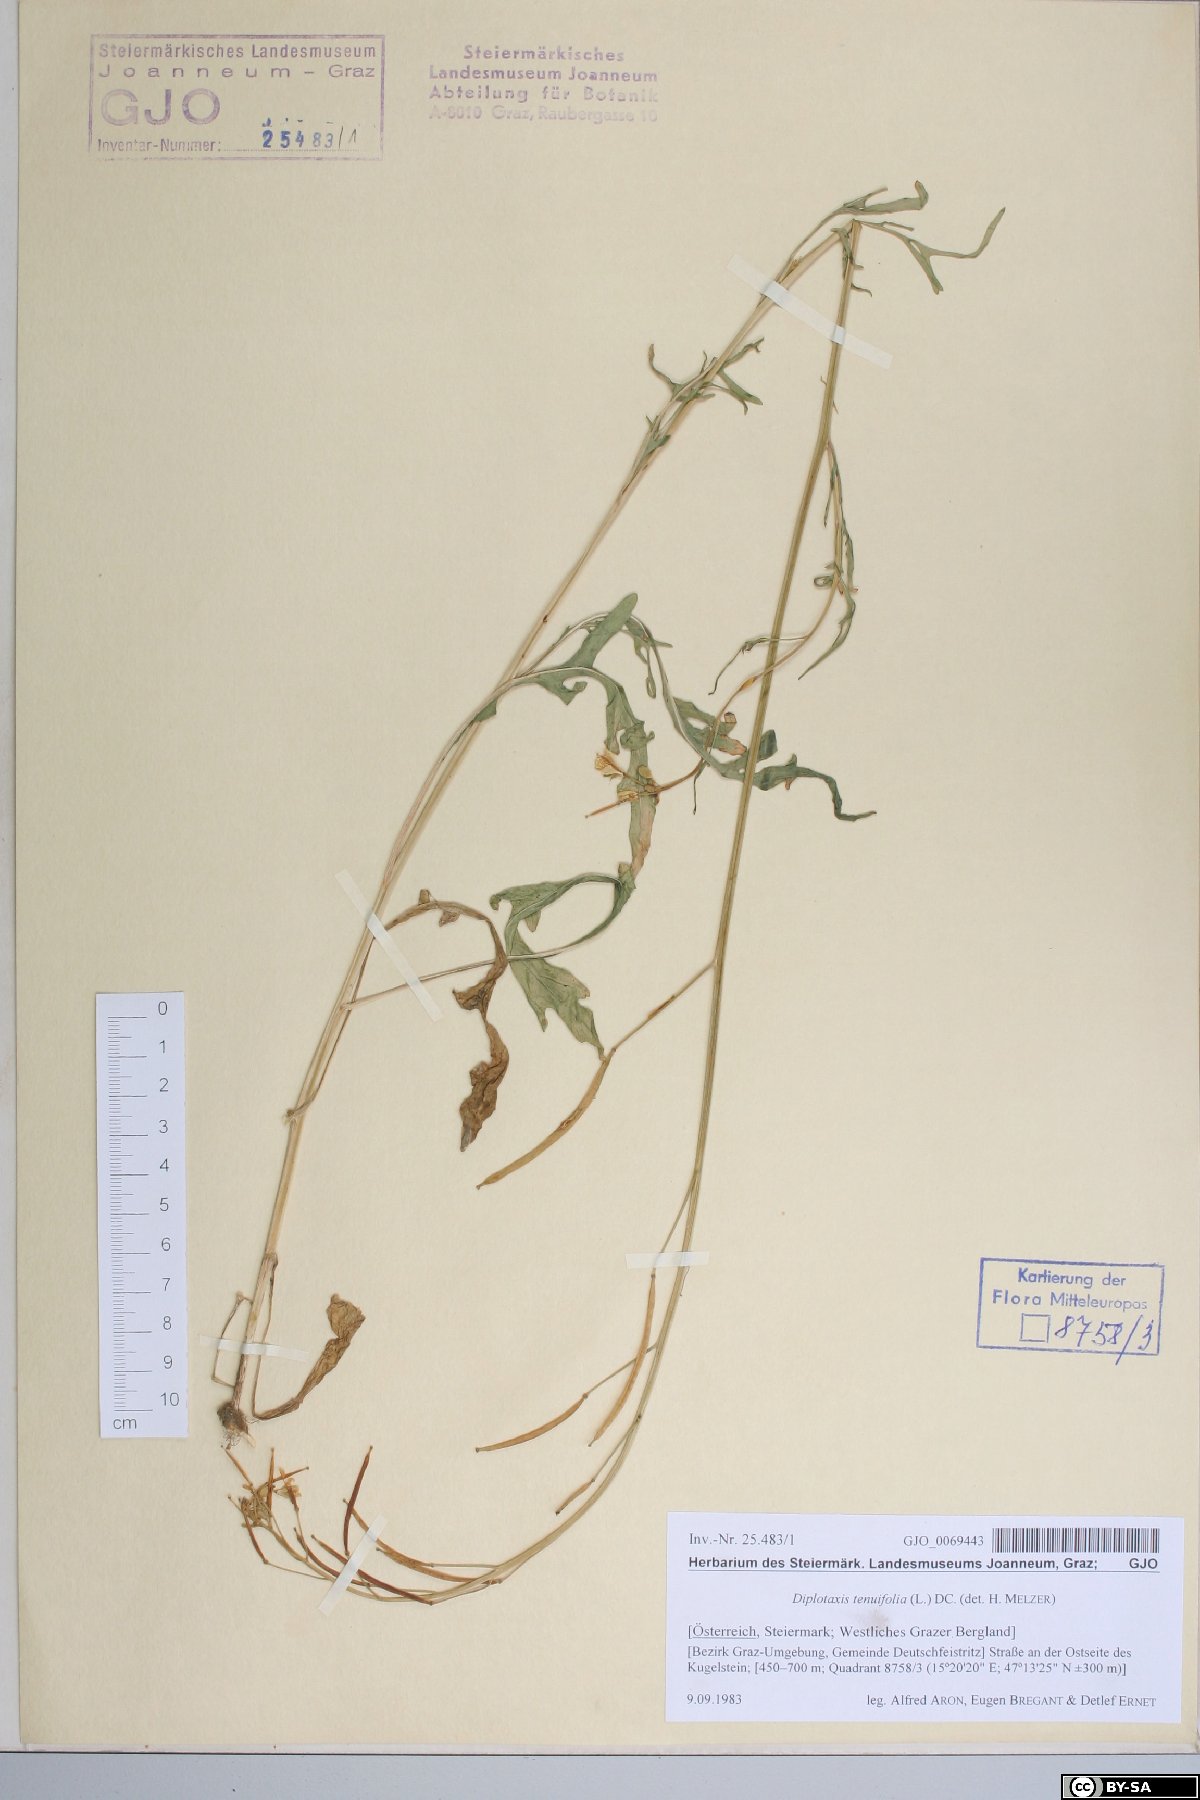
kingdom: Plantae
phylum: Tracheophyta
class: Magnoliopsida
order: Brassicales
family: Brassicaceae
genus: Diplotaxis
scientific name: Diplotaxis tenuifolia
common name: Perennial wall-rocket
